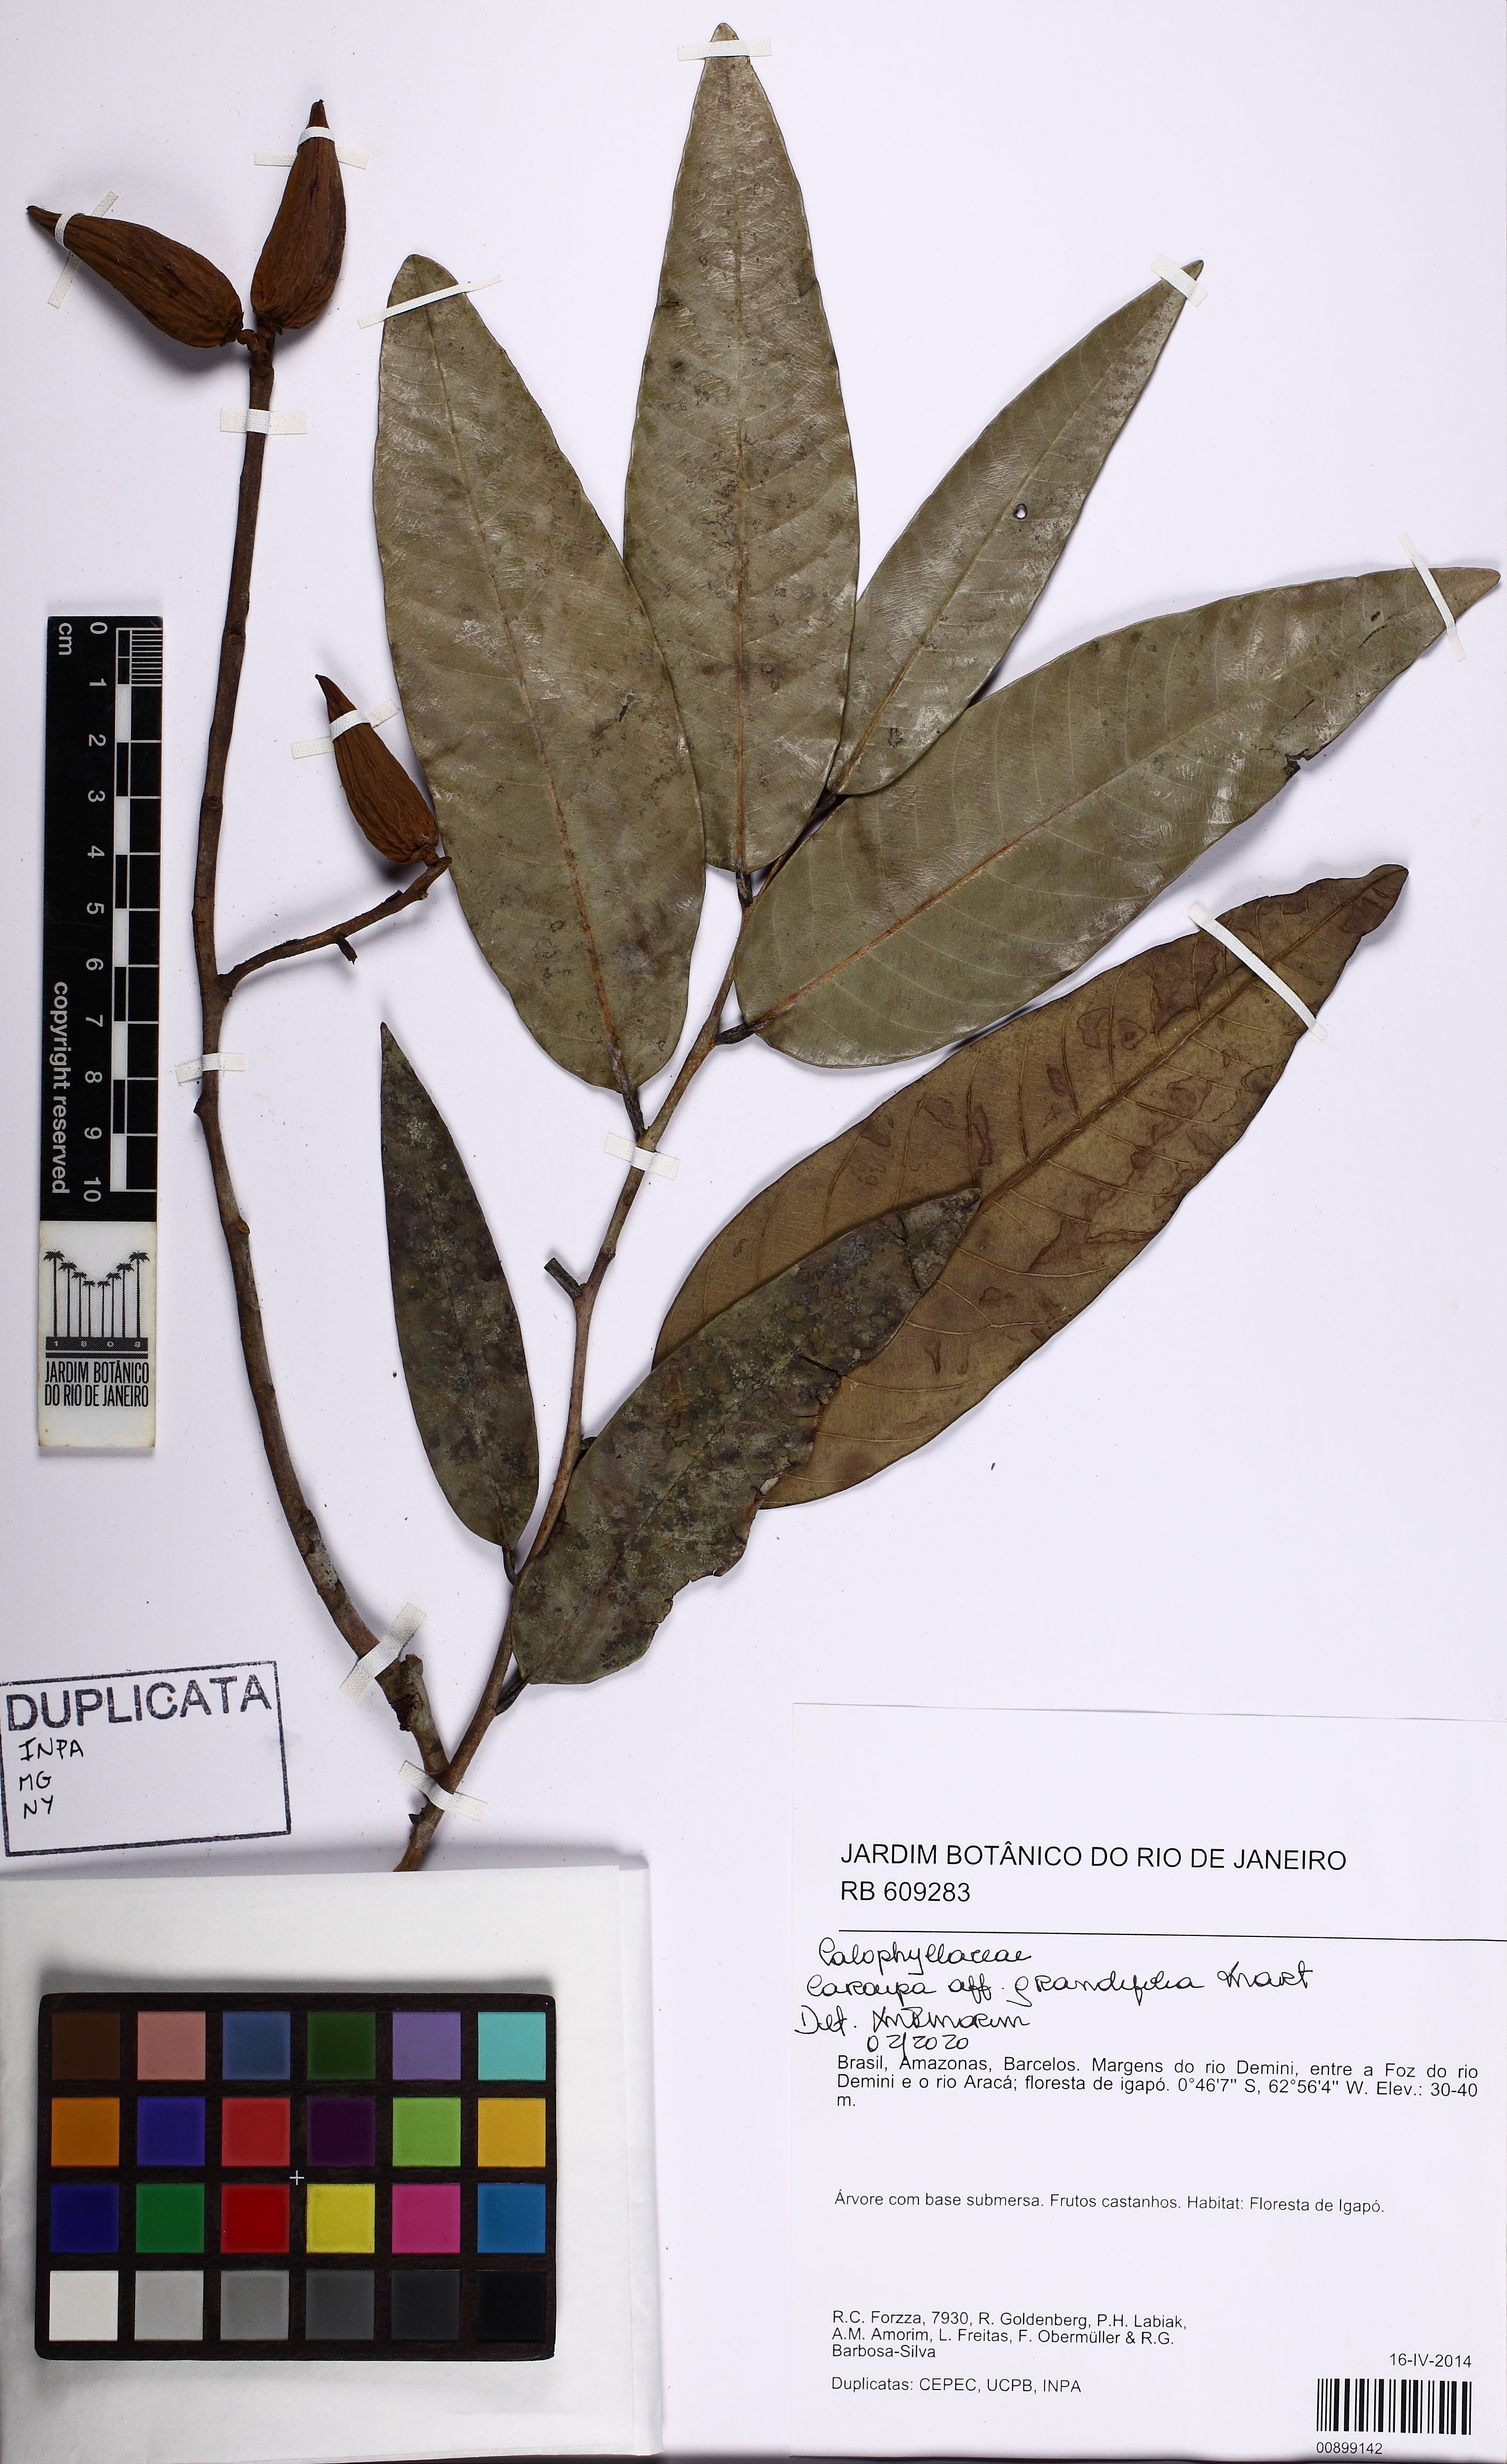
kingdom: Plantae
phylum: Tracheophyta
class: Magnoliopsida
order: Malpighiales
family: Calophyllaceae
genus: Caraipa
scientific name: Caraipa grandifolia
